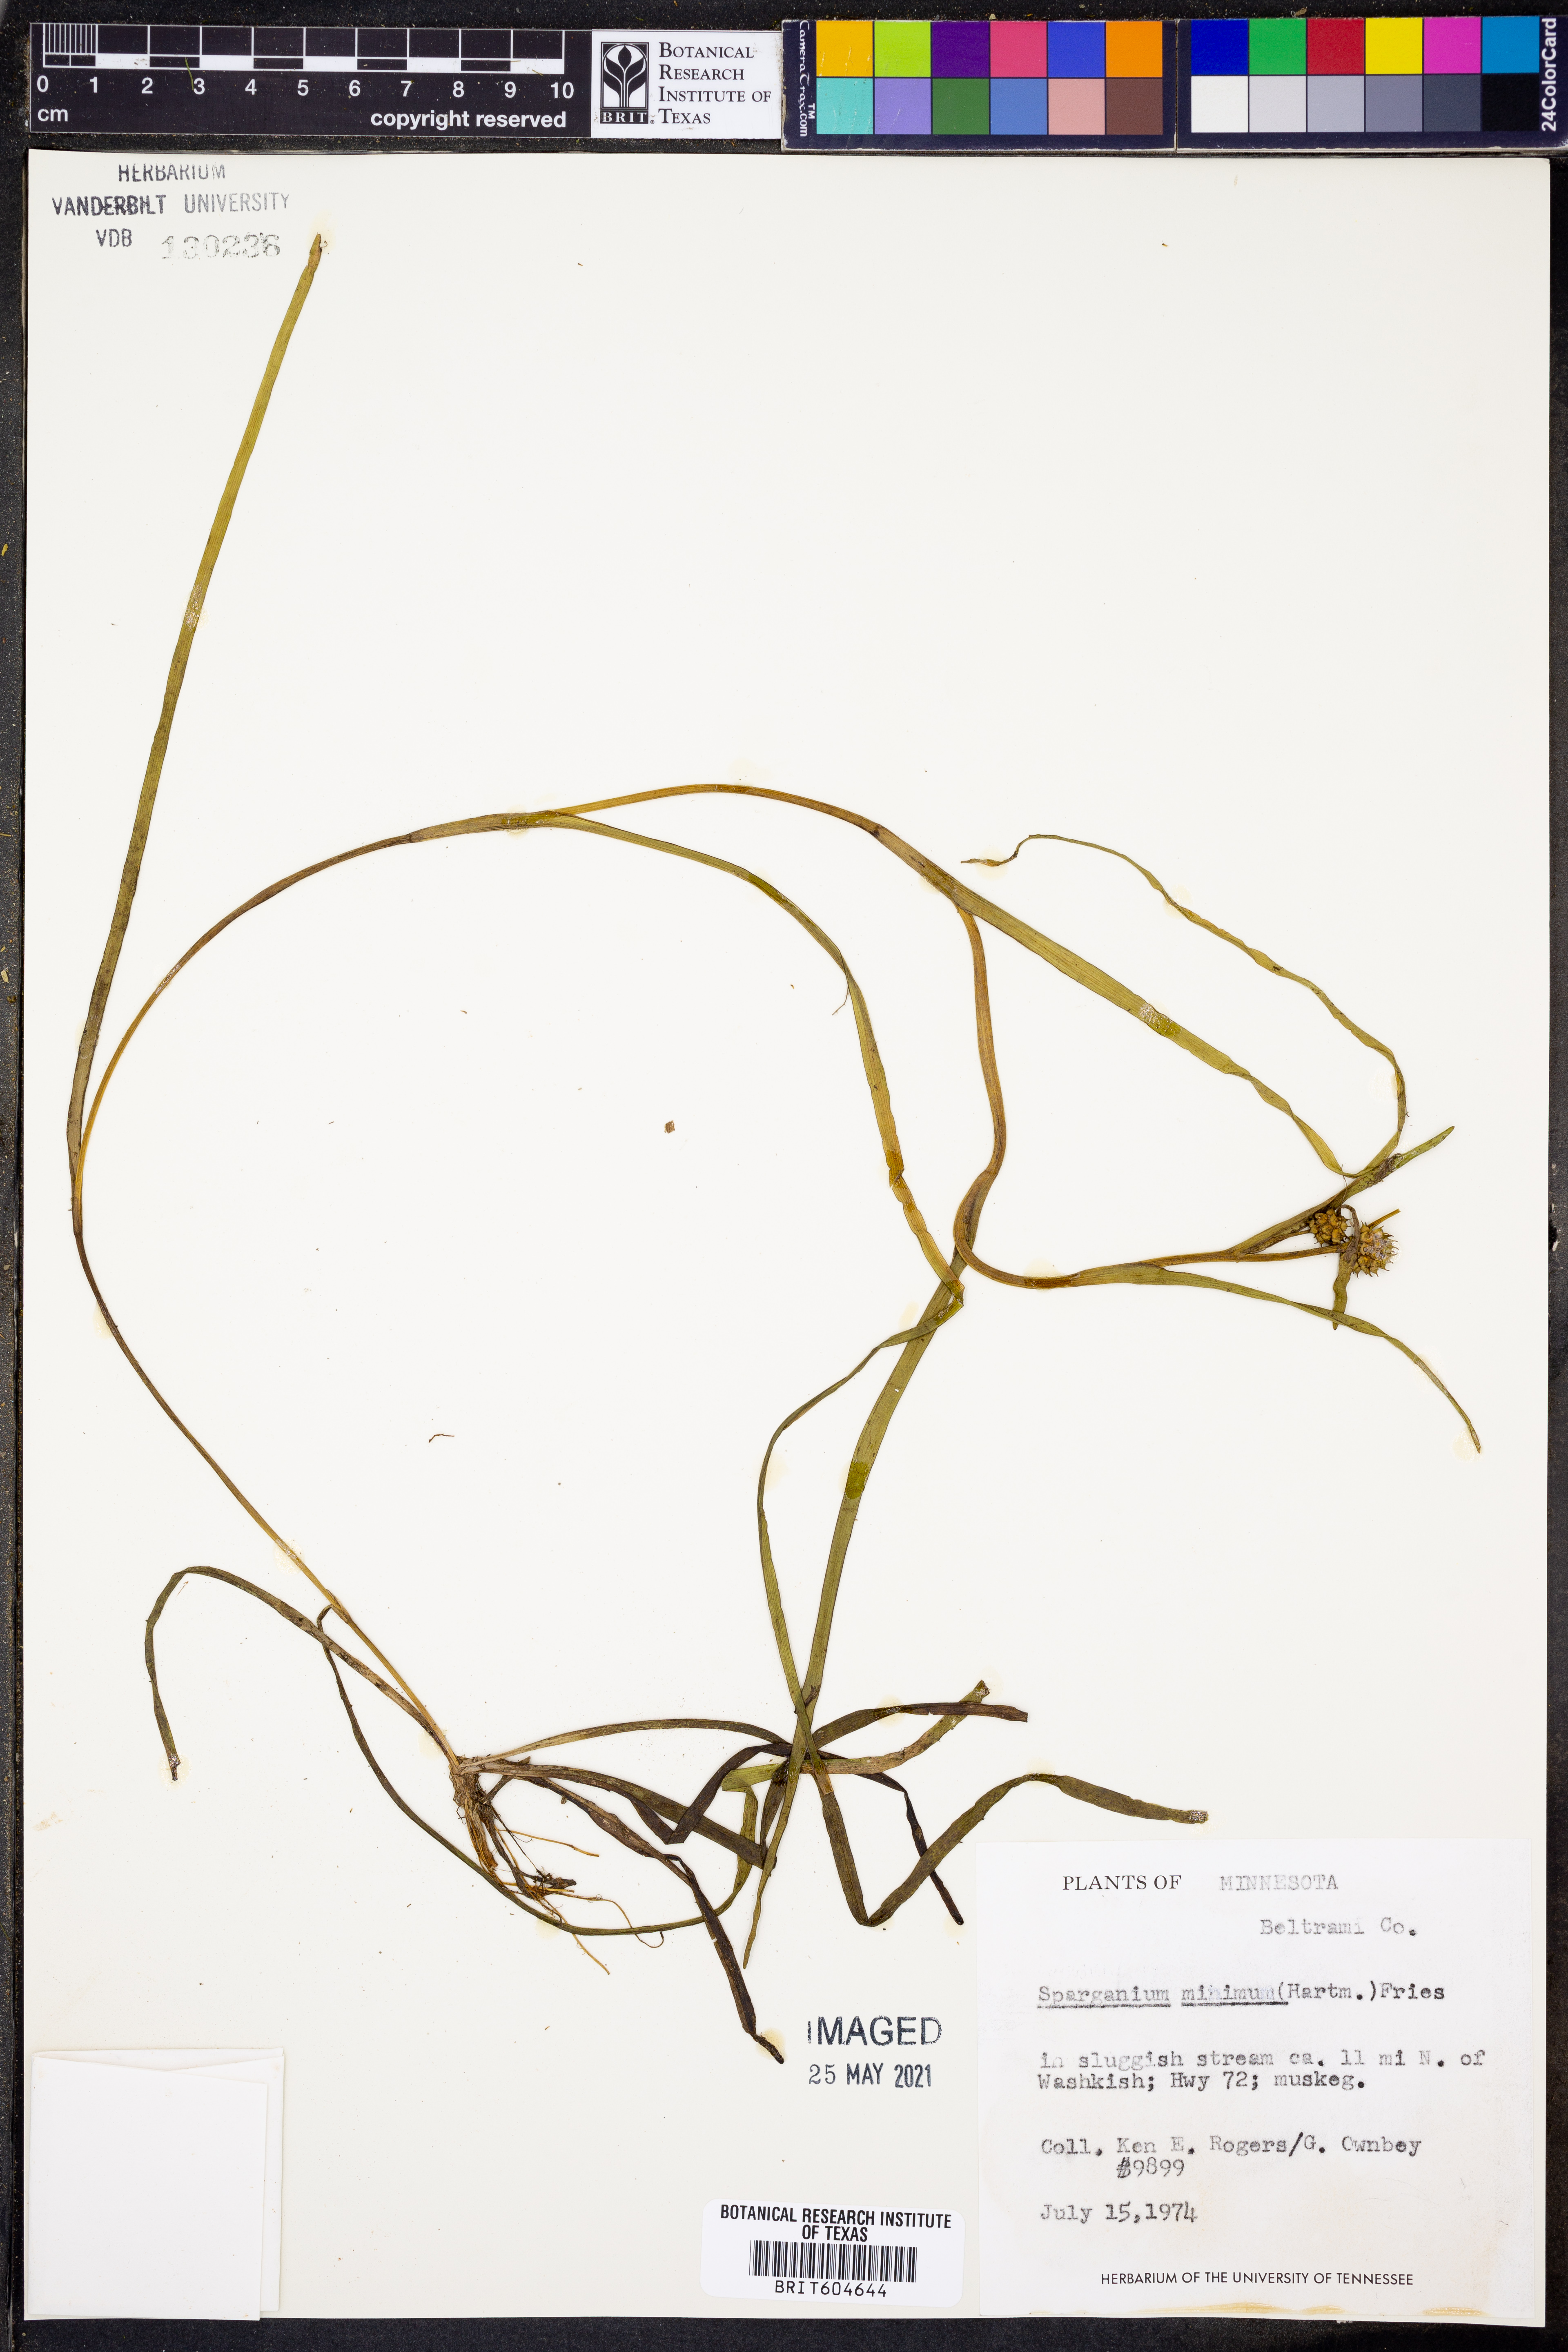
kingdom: Plantae
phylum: Tracheophyta
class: Liliopsida
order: Poales
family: Typhaceae
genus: Sparganium
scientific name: Sparganium natans
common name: Least bur-reed
